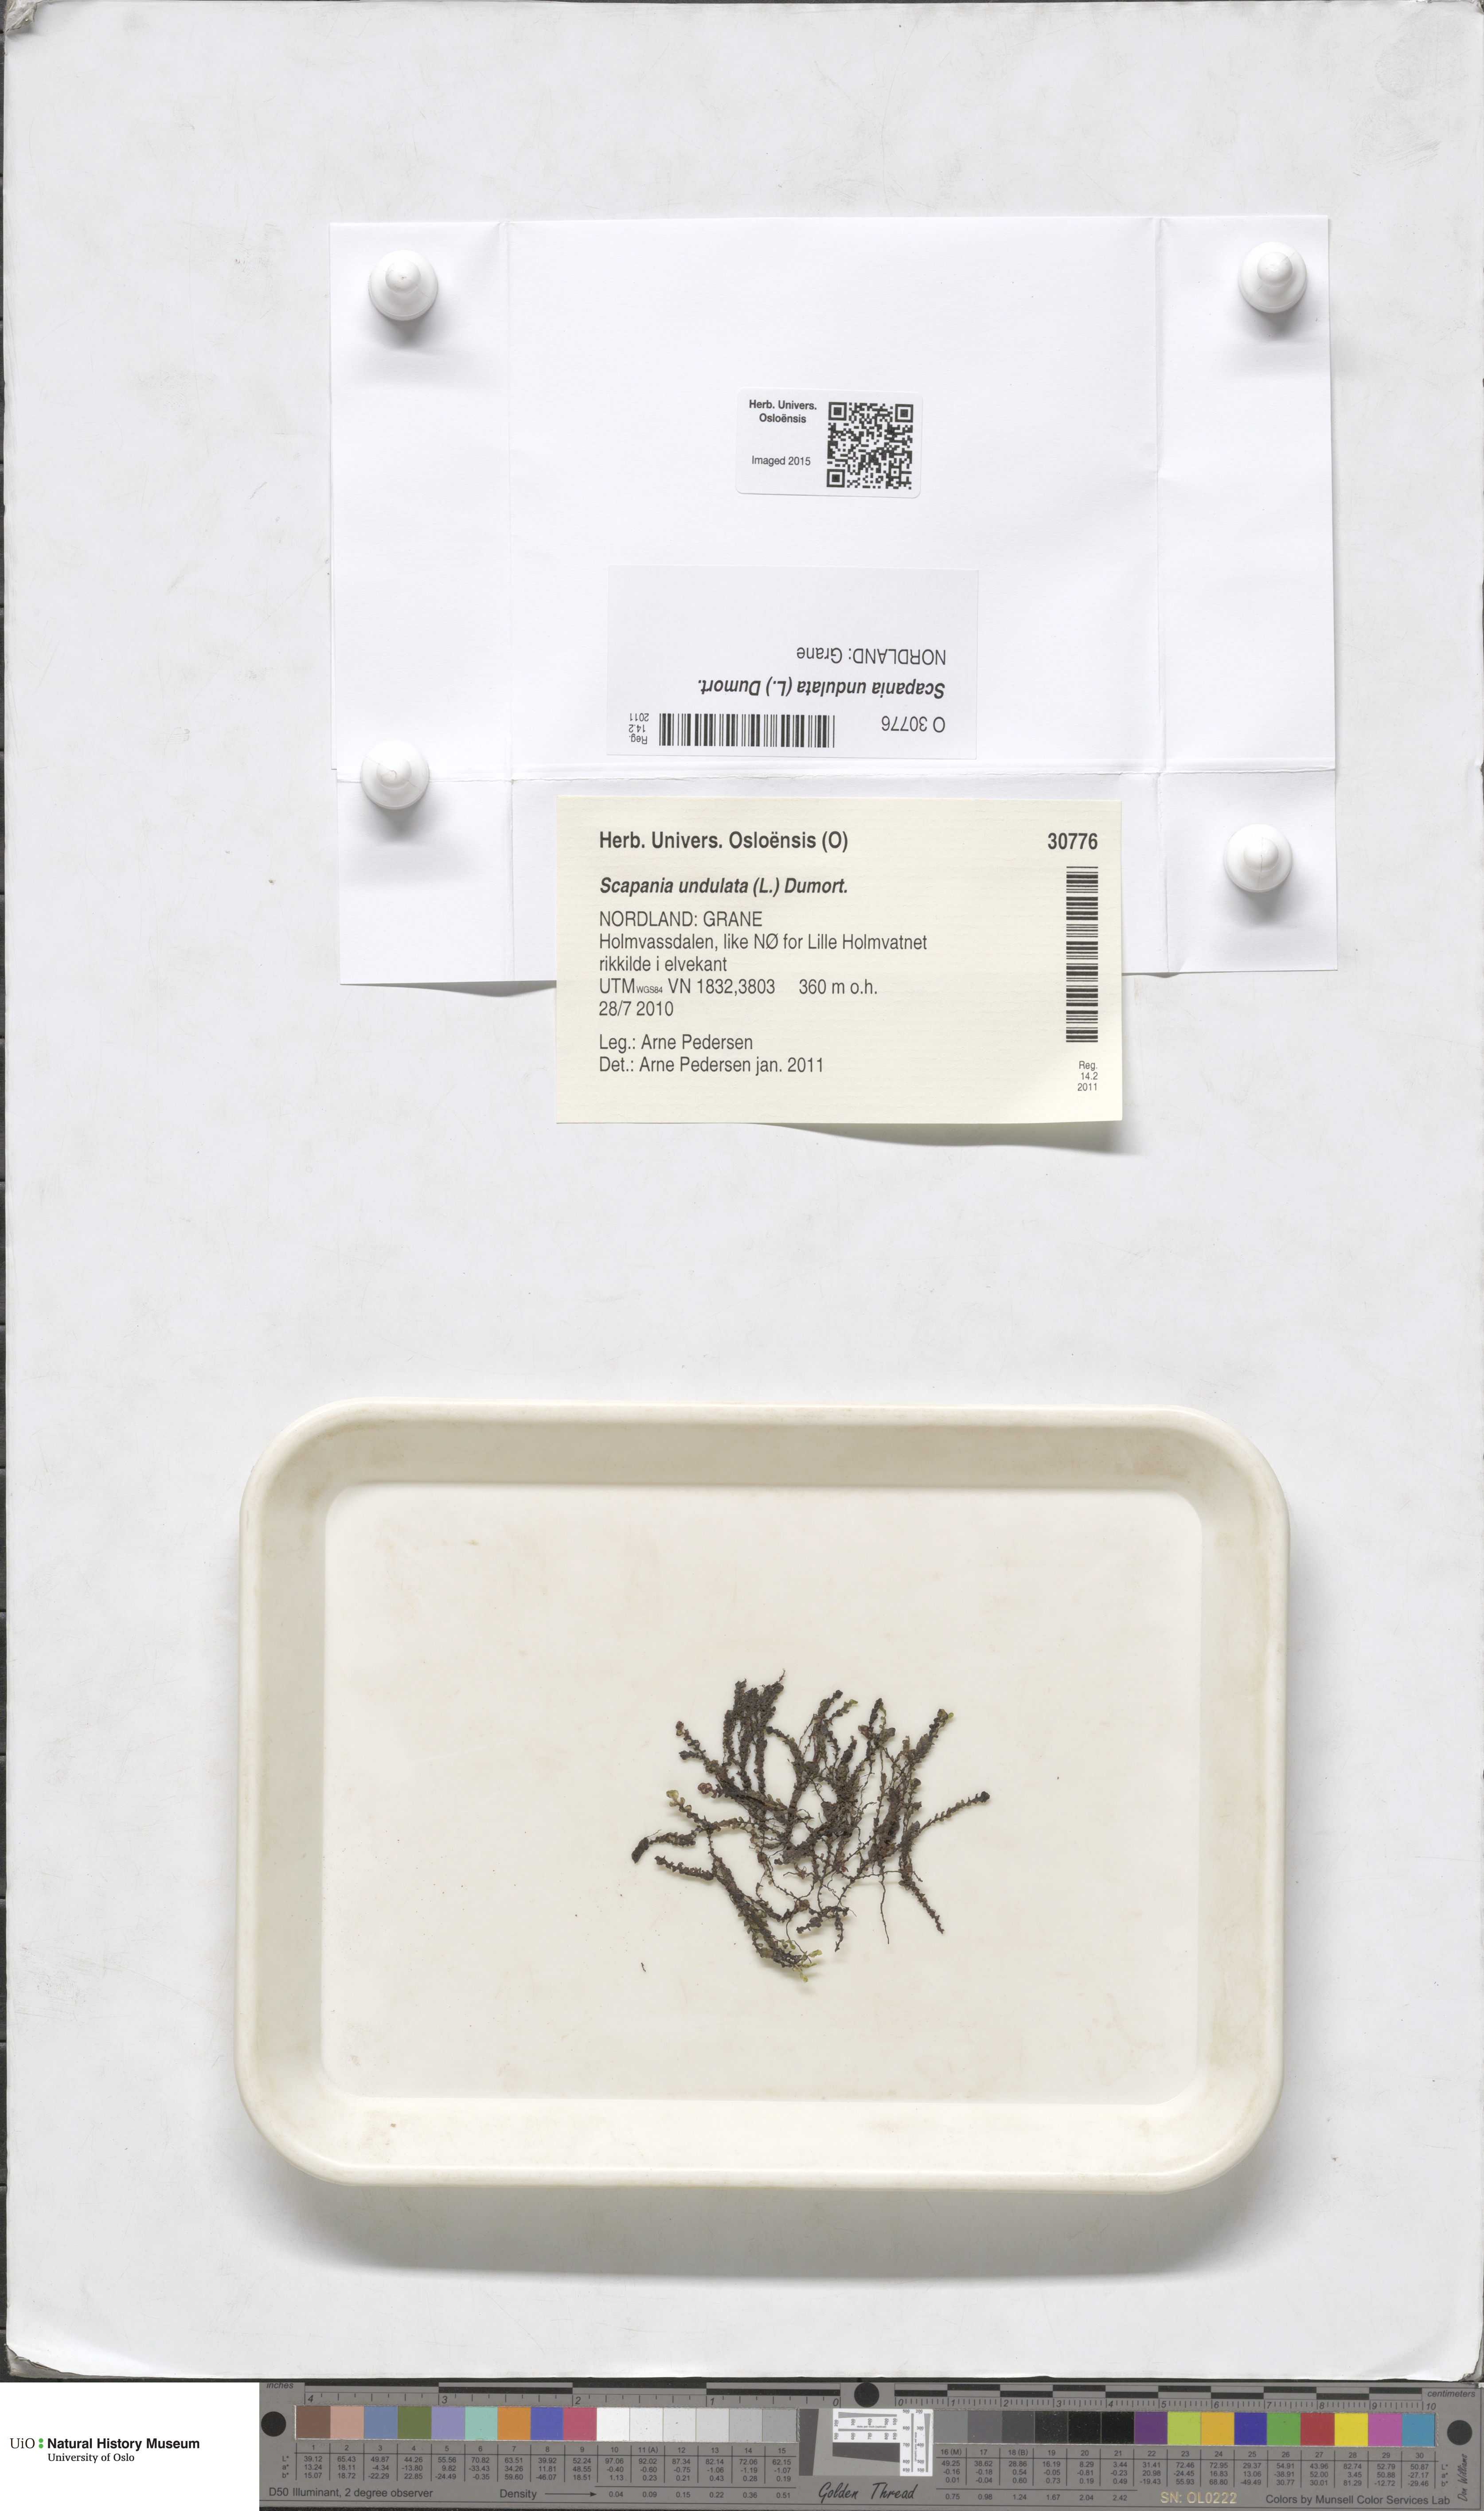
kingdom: Plantae
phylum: Marchantiophyta
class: Jungermanniopsida
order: Jungermanniales
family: Scapaniaceae
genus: Scapania
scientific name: Scapania undulata
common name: Water earwort
